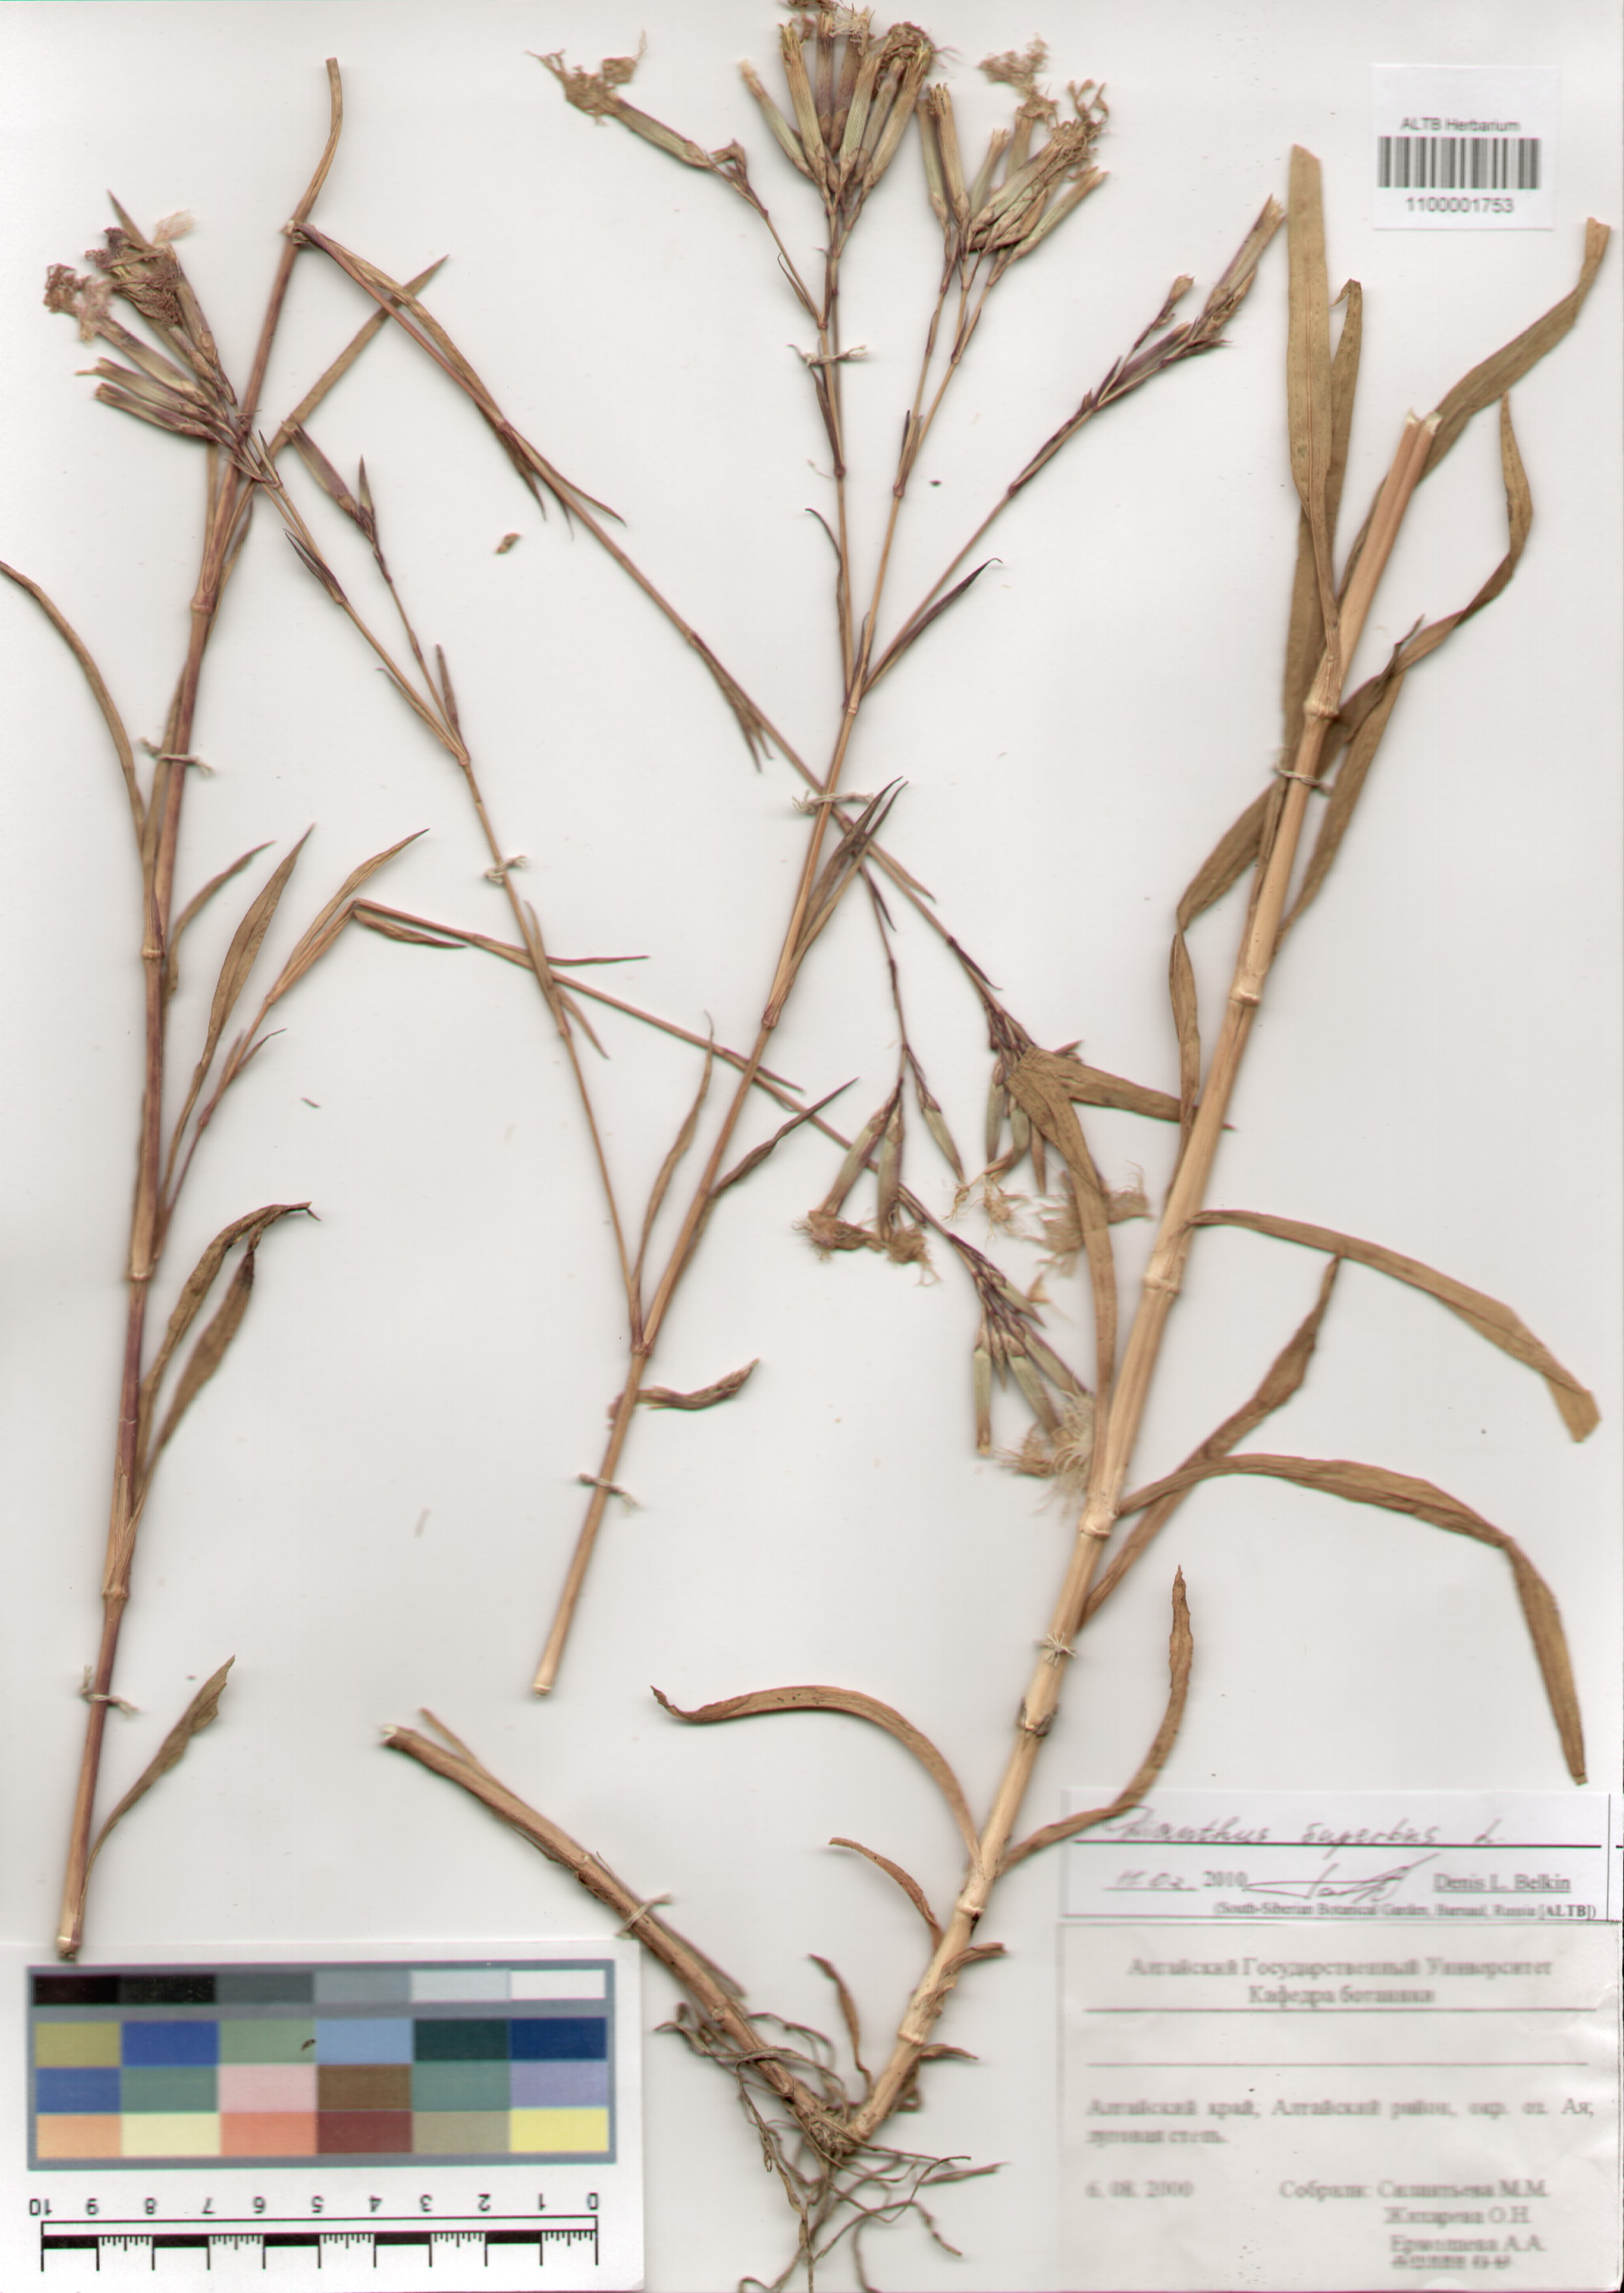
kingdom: Plantae
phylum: Tracheophyta
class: Magnoliopsida
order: Caryophyllales
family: Caryophyllaceae
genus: Dianthus
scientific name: Dianthus superbus
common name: Fringed pink
